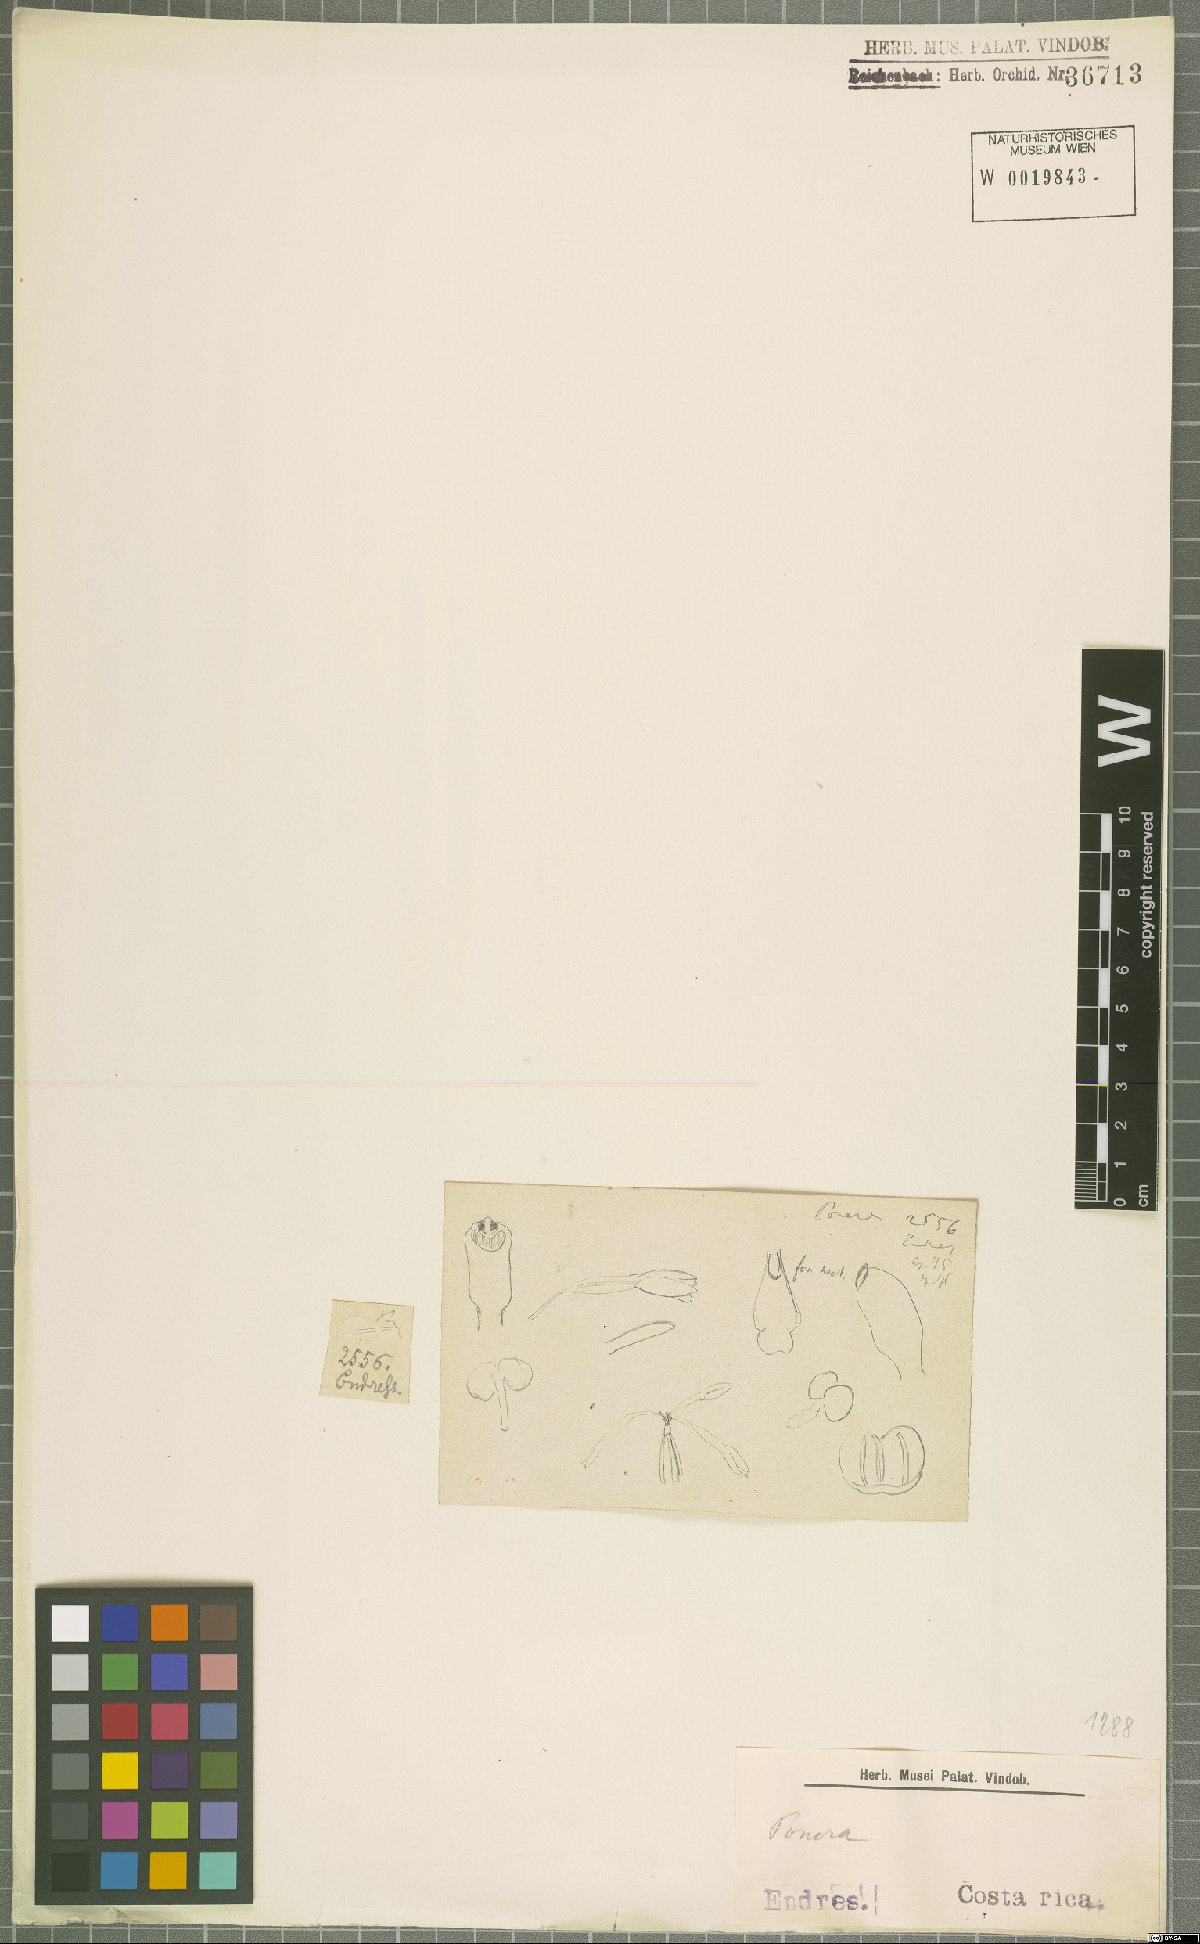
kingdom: Plantae
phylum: Tracheophyta
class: Liliopsida
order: Asparagales
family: Orchidaceae
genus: Ponera
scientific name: Ponera
